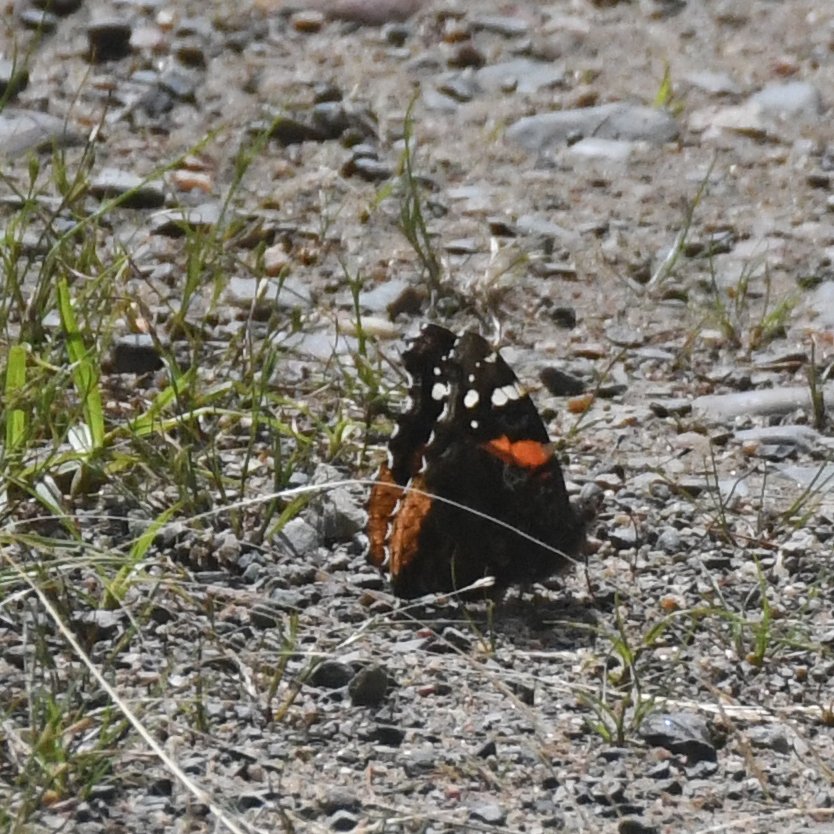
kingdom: Animalia
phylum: Arthropoda
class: Insecta
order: Lepidoptera
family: Nymphalidae
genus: Vanessa
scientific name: Vanessa atalanta
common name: Red Admiral
